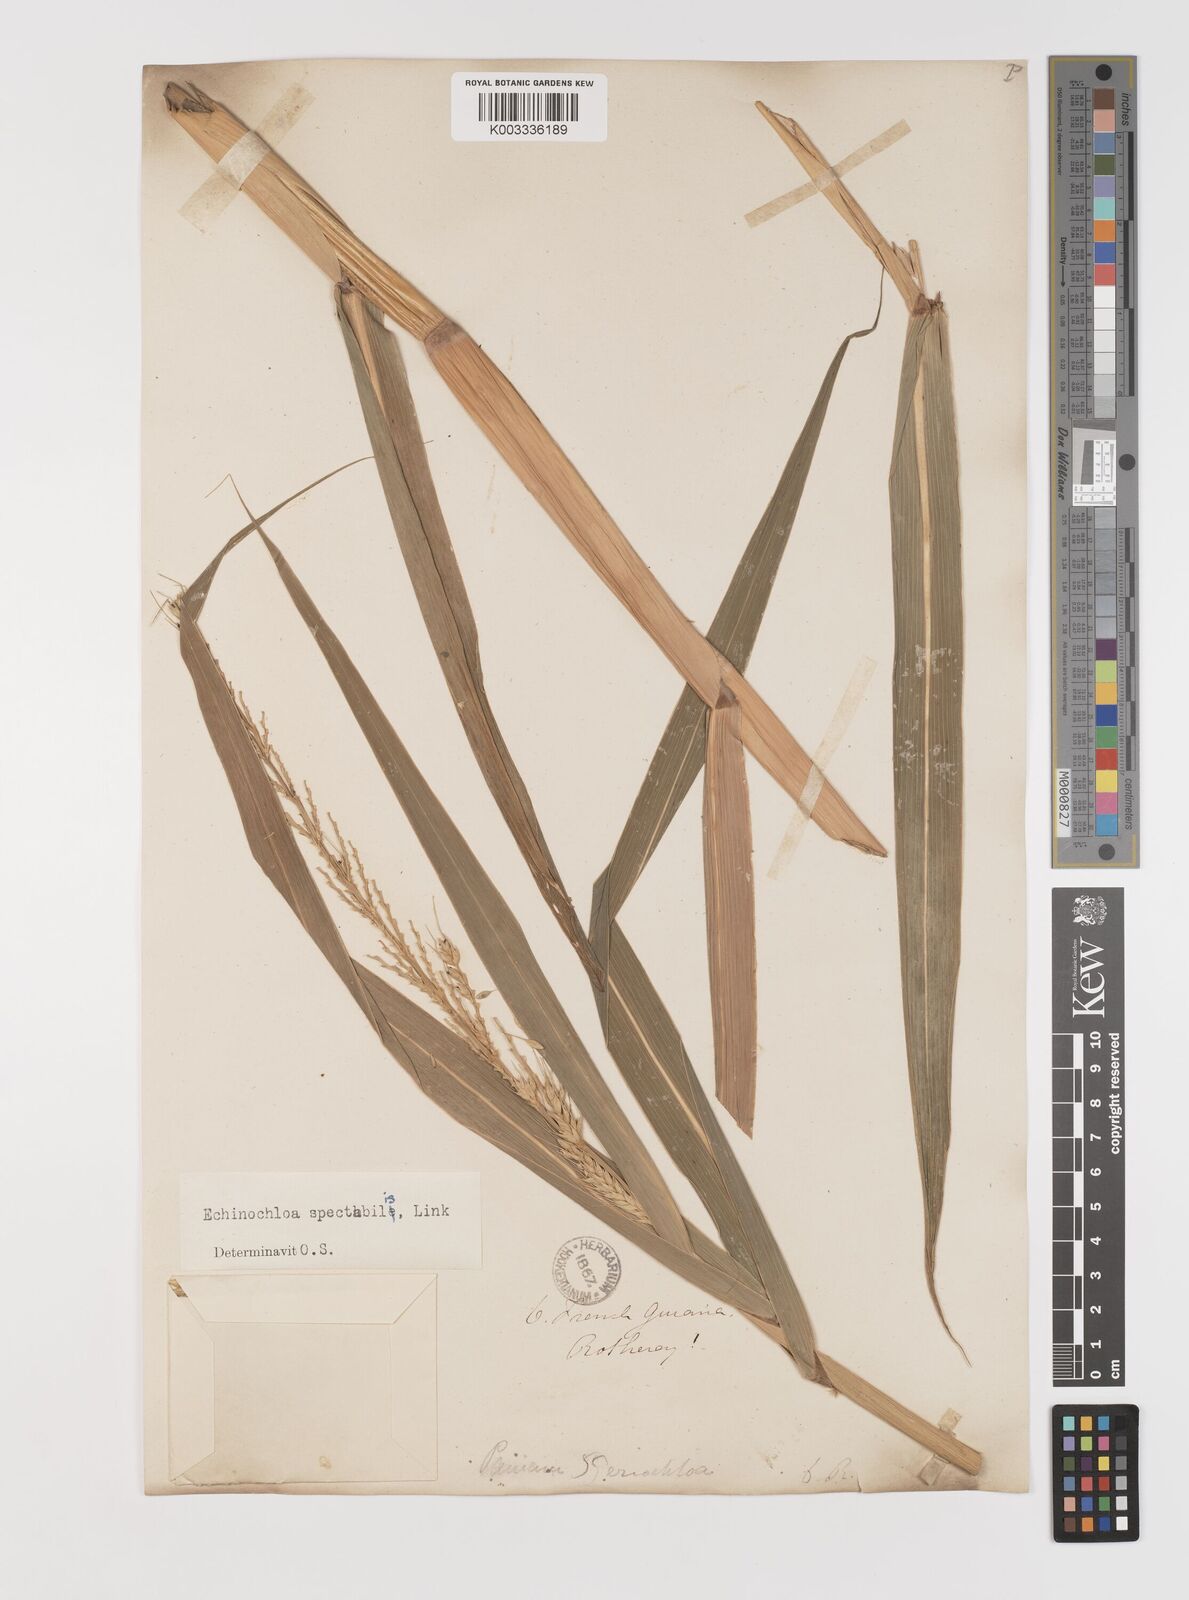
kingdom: Plantae
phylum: Tracheophyta
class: Liliopsida
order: Poales
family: Poaceae
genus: Echinochloa
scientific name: Echinochloa polystachya
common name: Creeping river grass
